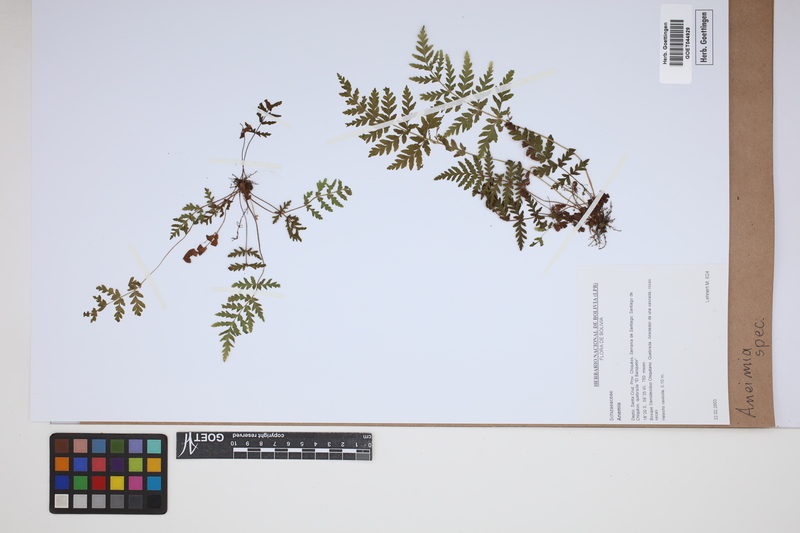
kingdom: Plantae
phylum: Tracheophyta
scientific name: Tracheophyta
